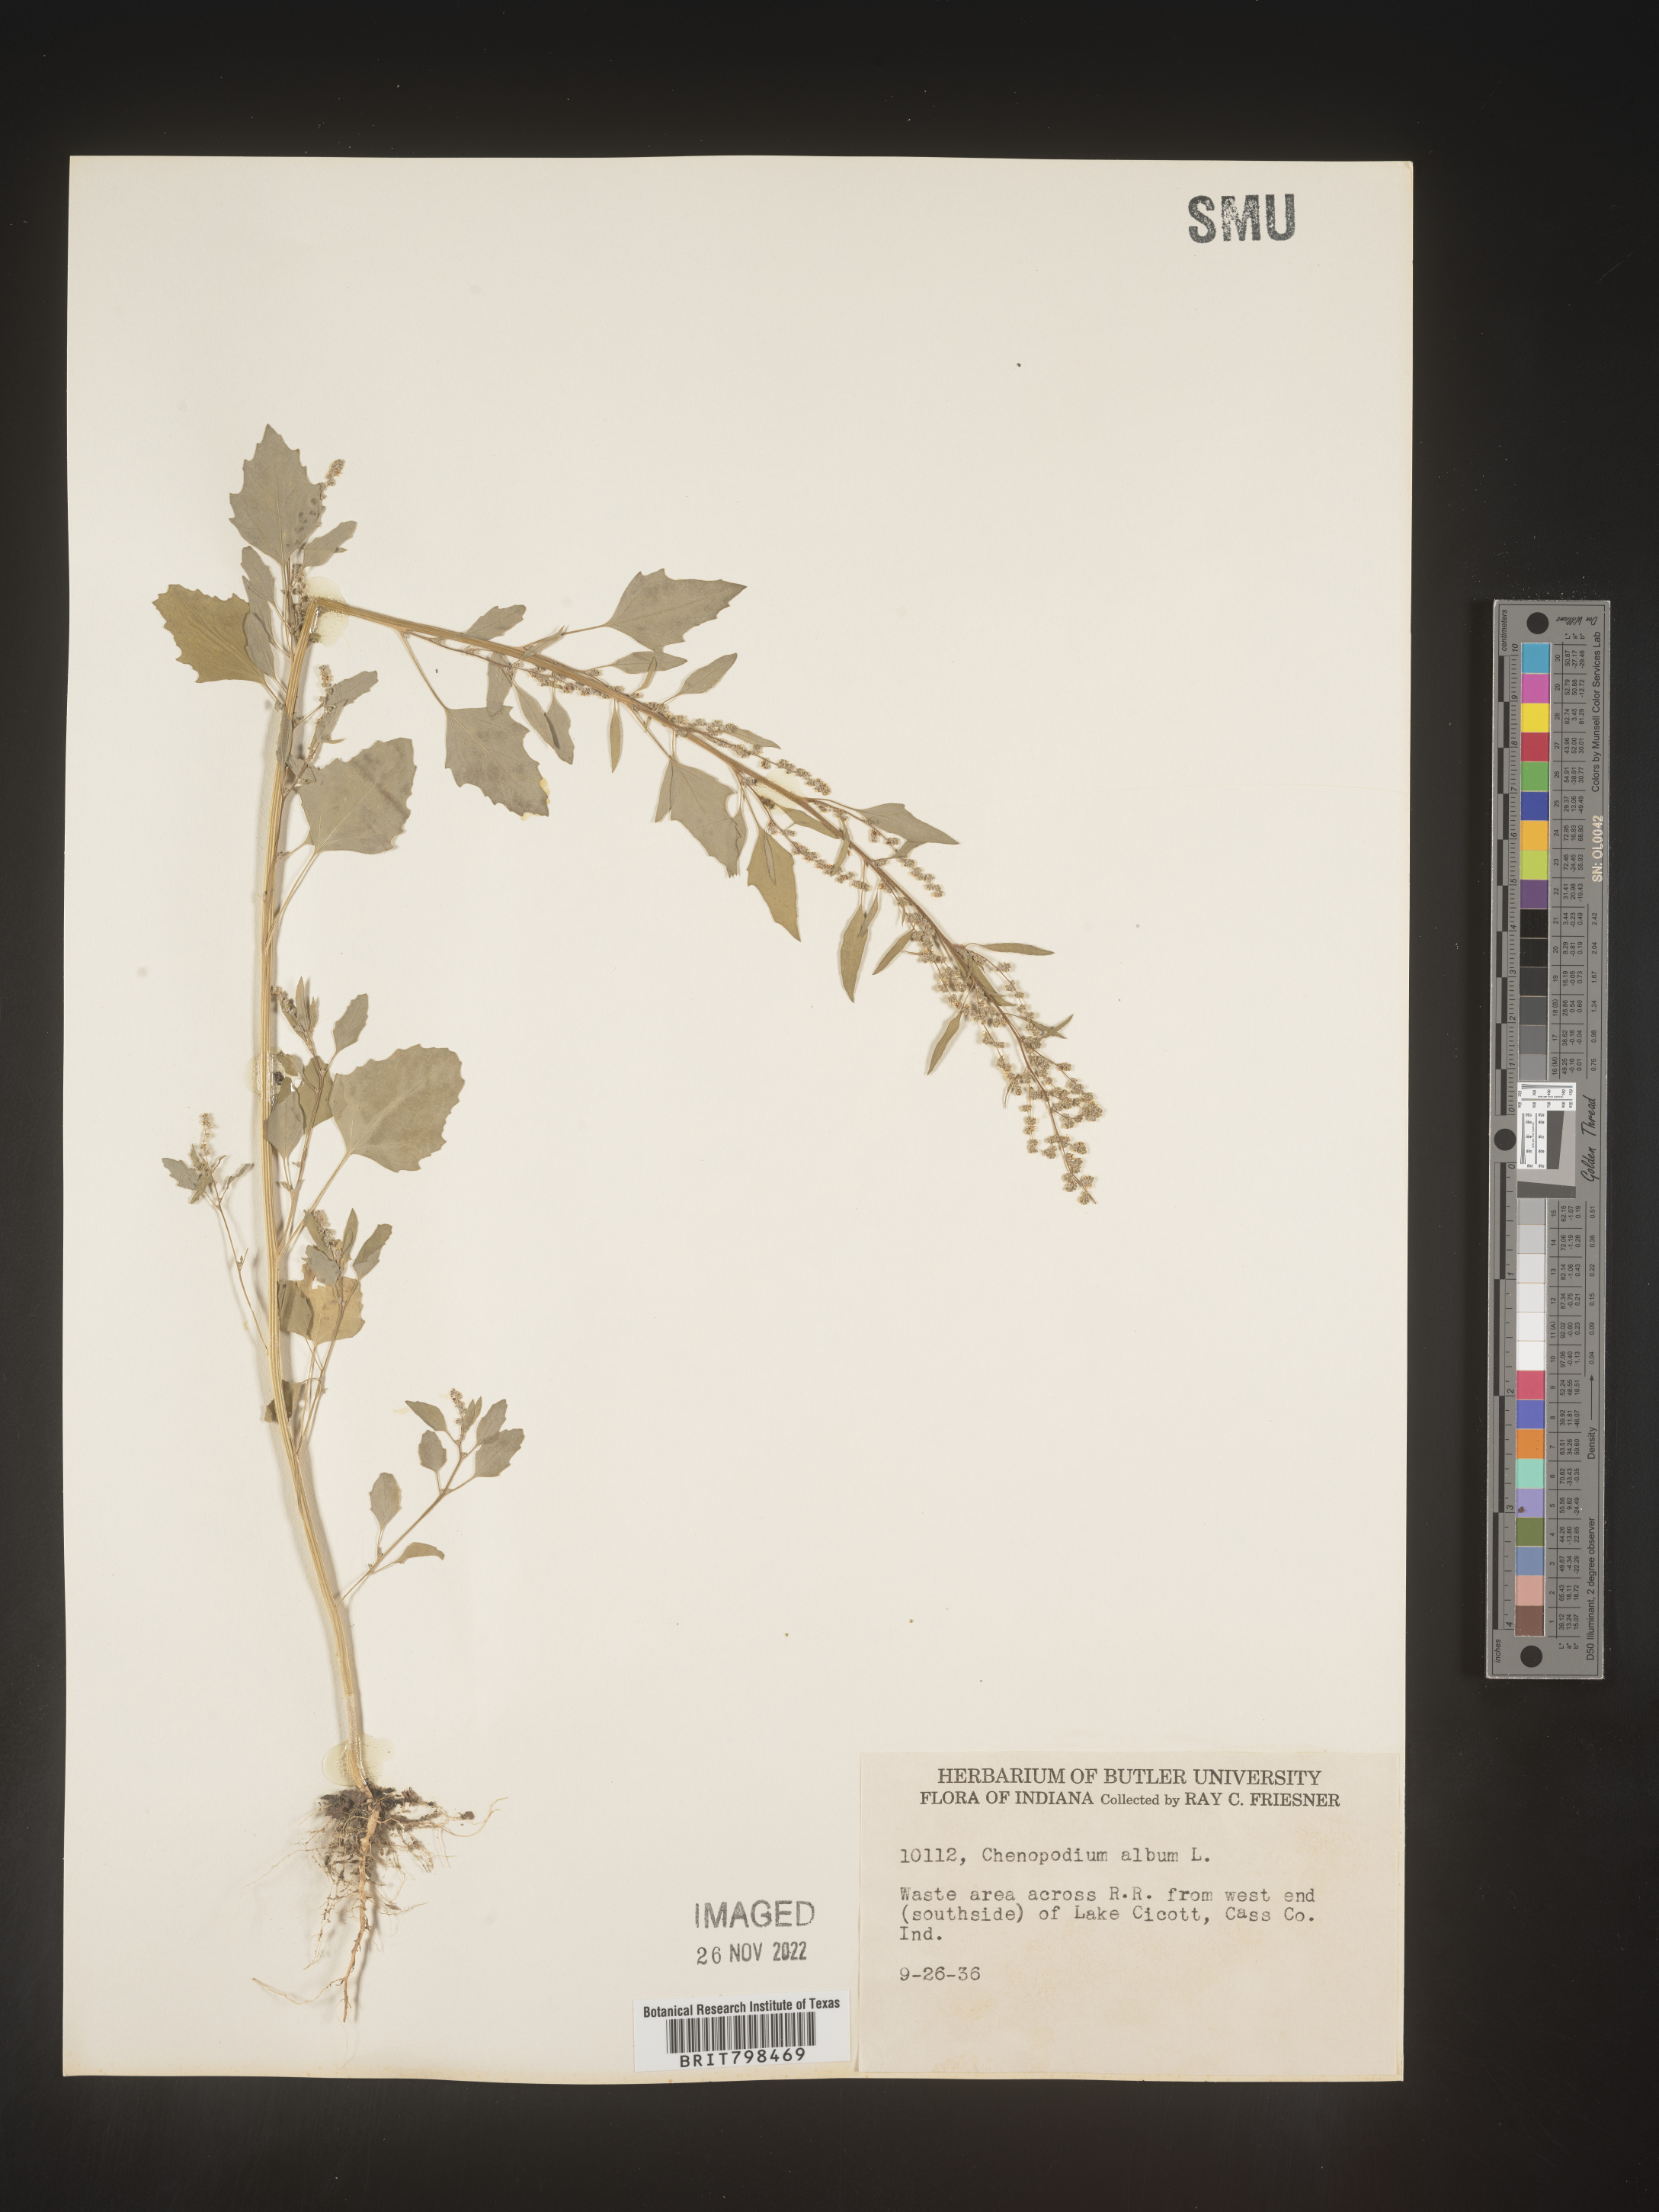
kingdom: Plantae
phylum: Tracheophyta
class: Magnoliopsida
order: Caryophyllales
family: Amaranthaceae
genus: Chenopodium
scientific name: Chenopodium album
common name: Fat-hen
